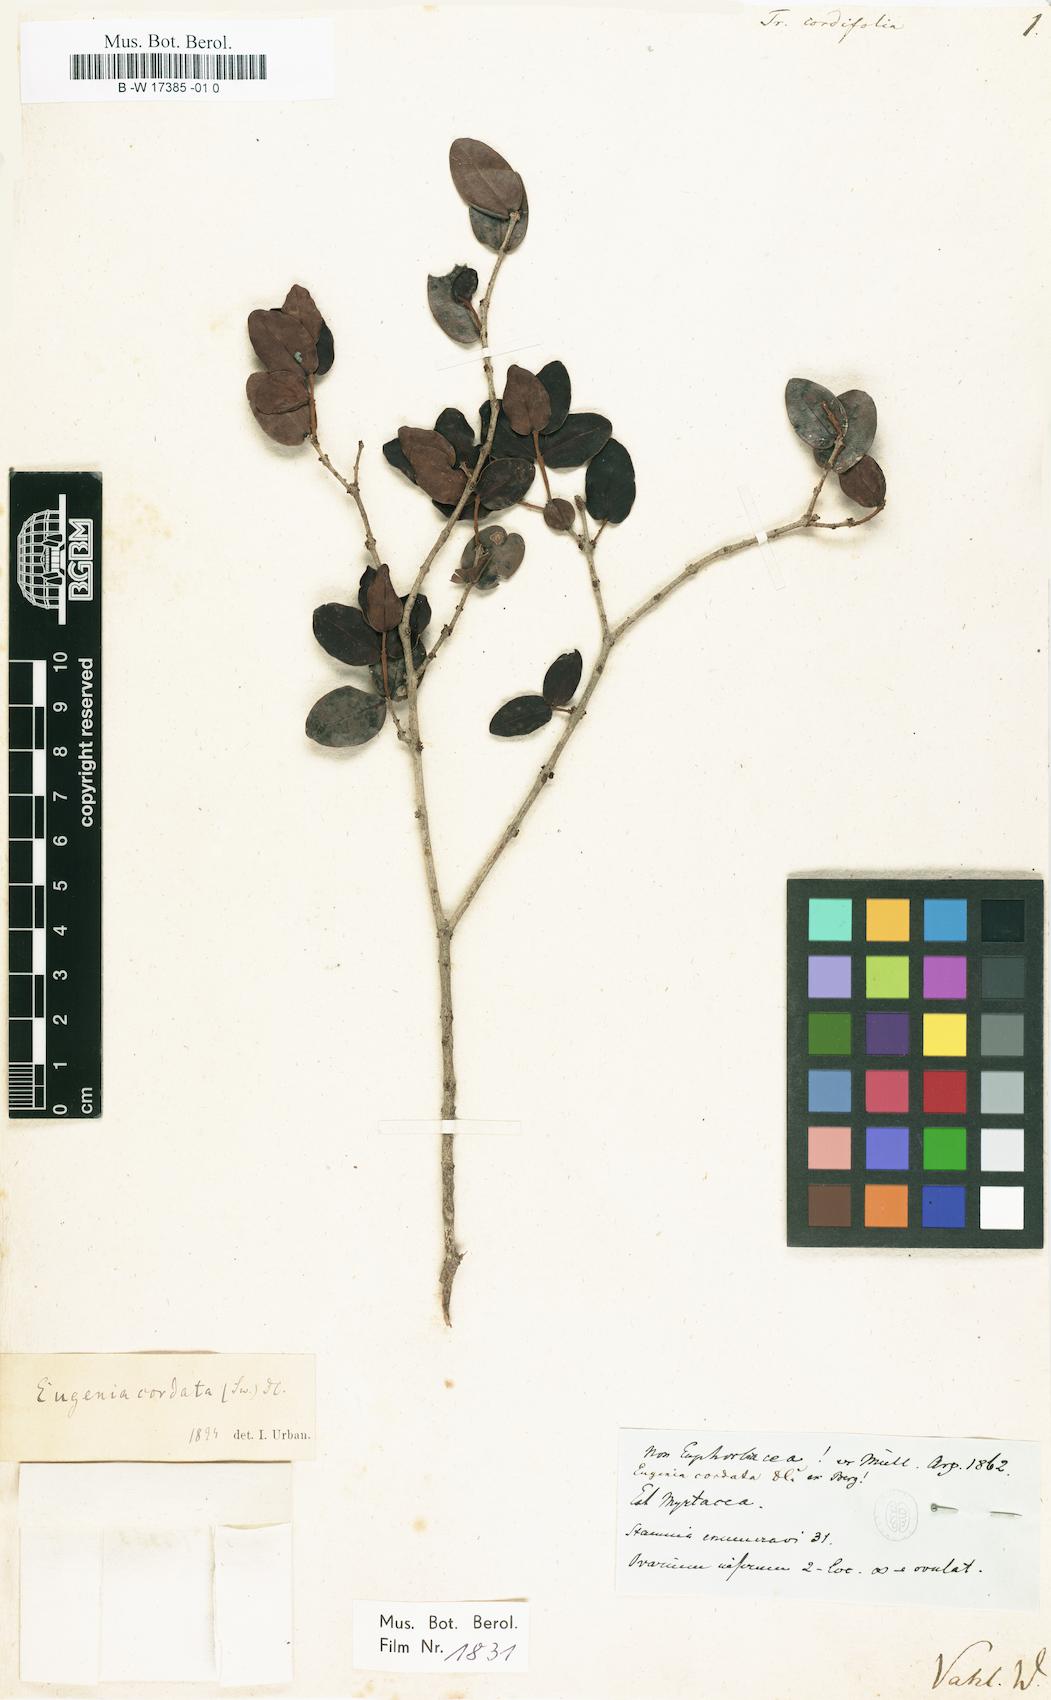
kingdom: Plantae
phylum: Tracheophyta
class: Magnoliopsida
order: Myrtales
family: Myrtaceae
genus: Eugenia
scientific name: Eugenia cordata
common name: Lathberry
